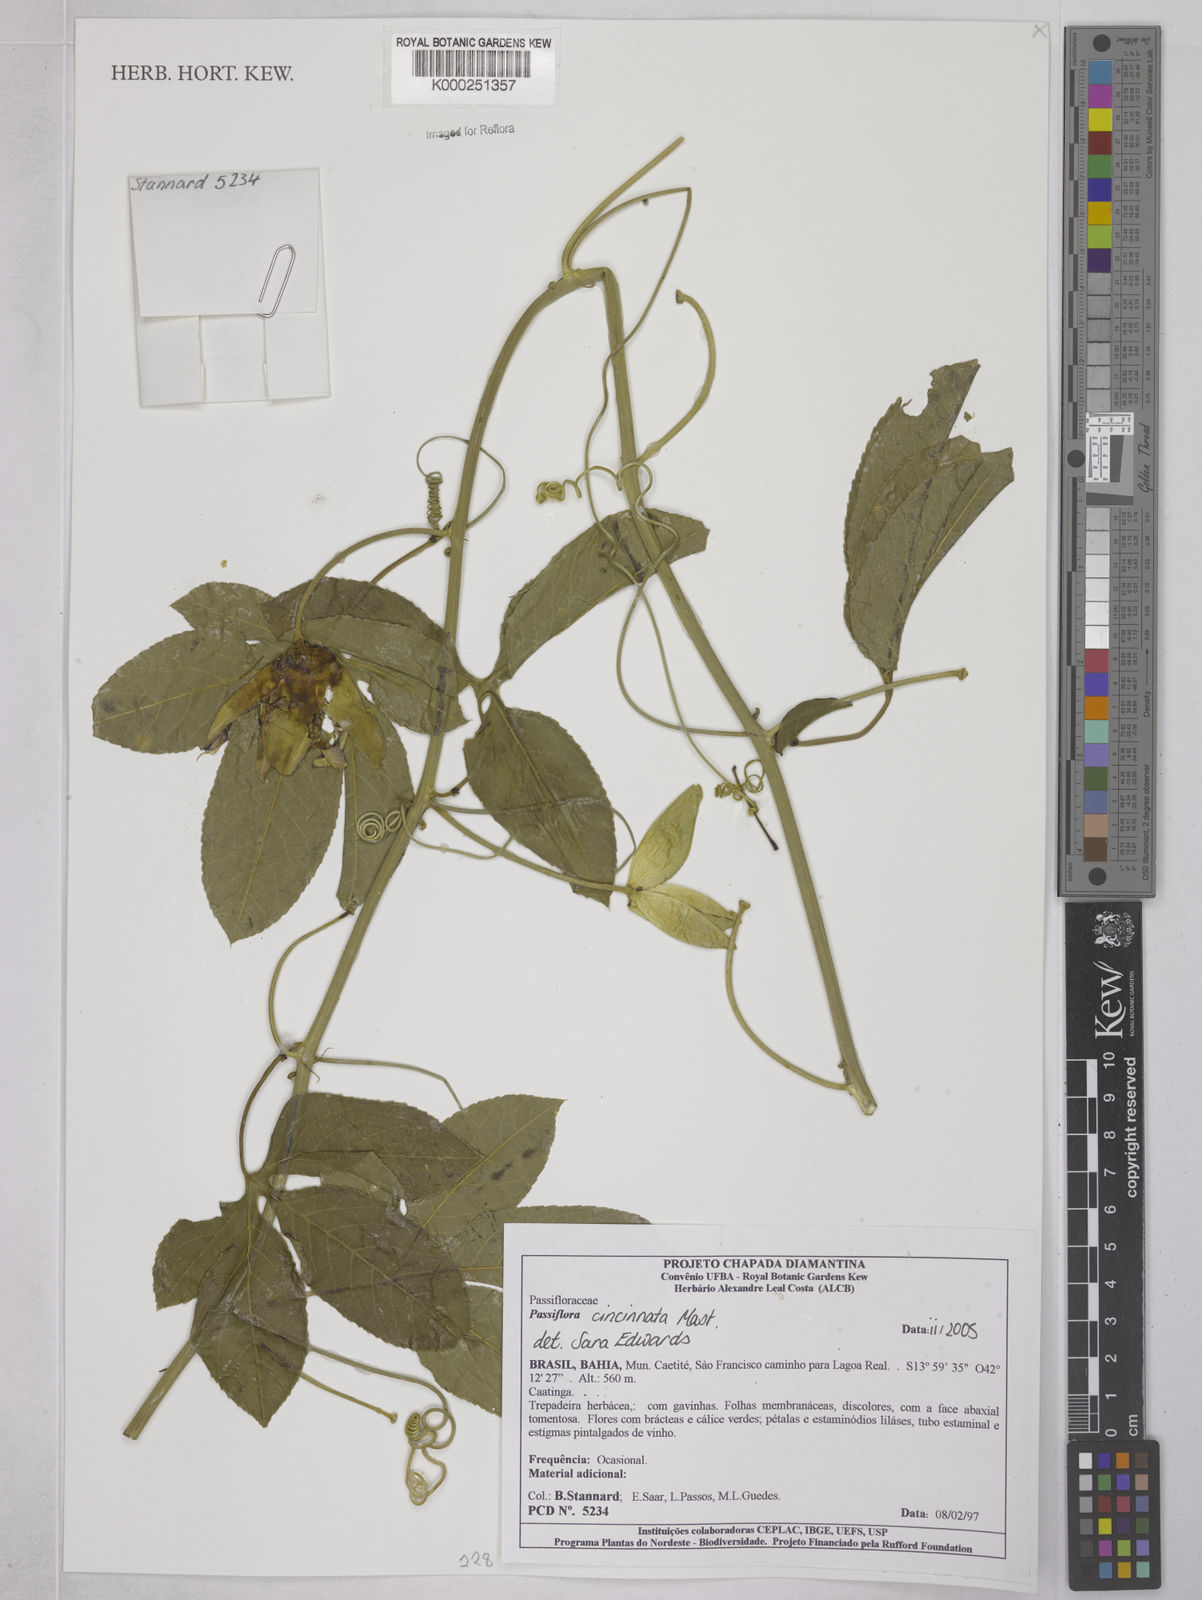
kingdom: Plantae
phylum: Tracheophyta
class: Magnoliopsida
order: Malpighiales
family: Passifloraceae
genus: Passiflora
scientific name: Passiflora recurva
